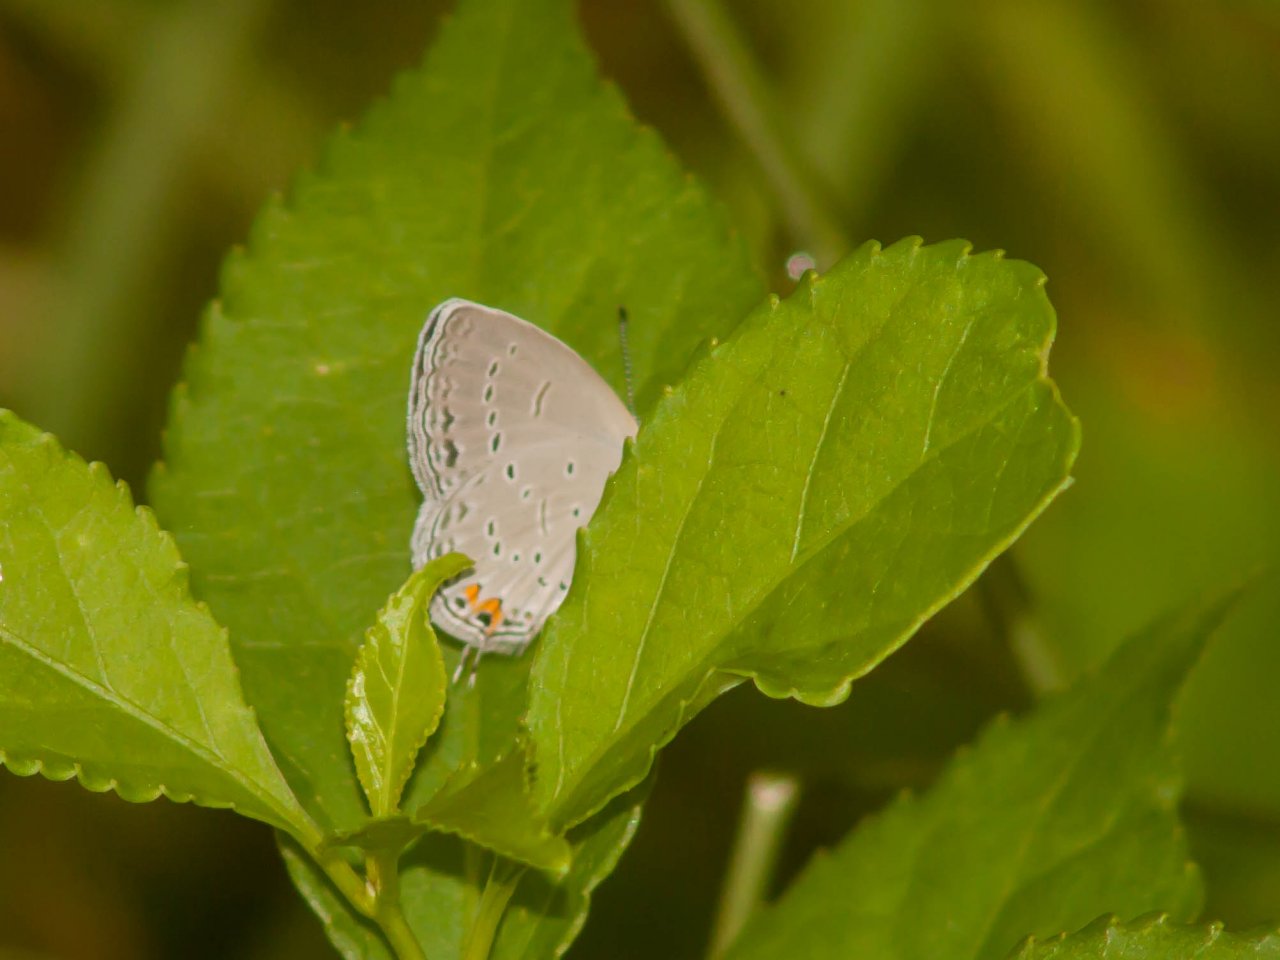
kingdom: Animalia
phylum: Arthropoda
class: Insecta
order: Lepidoptera
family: Lycaenidae
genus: Elkalyce
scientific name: Elkalyce comyntas
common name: Eastern Tailed-Blue
